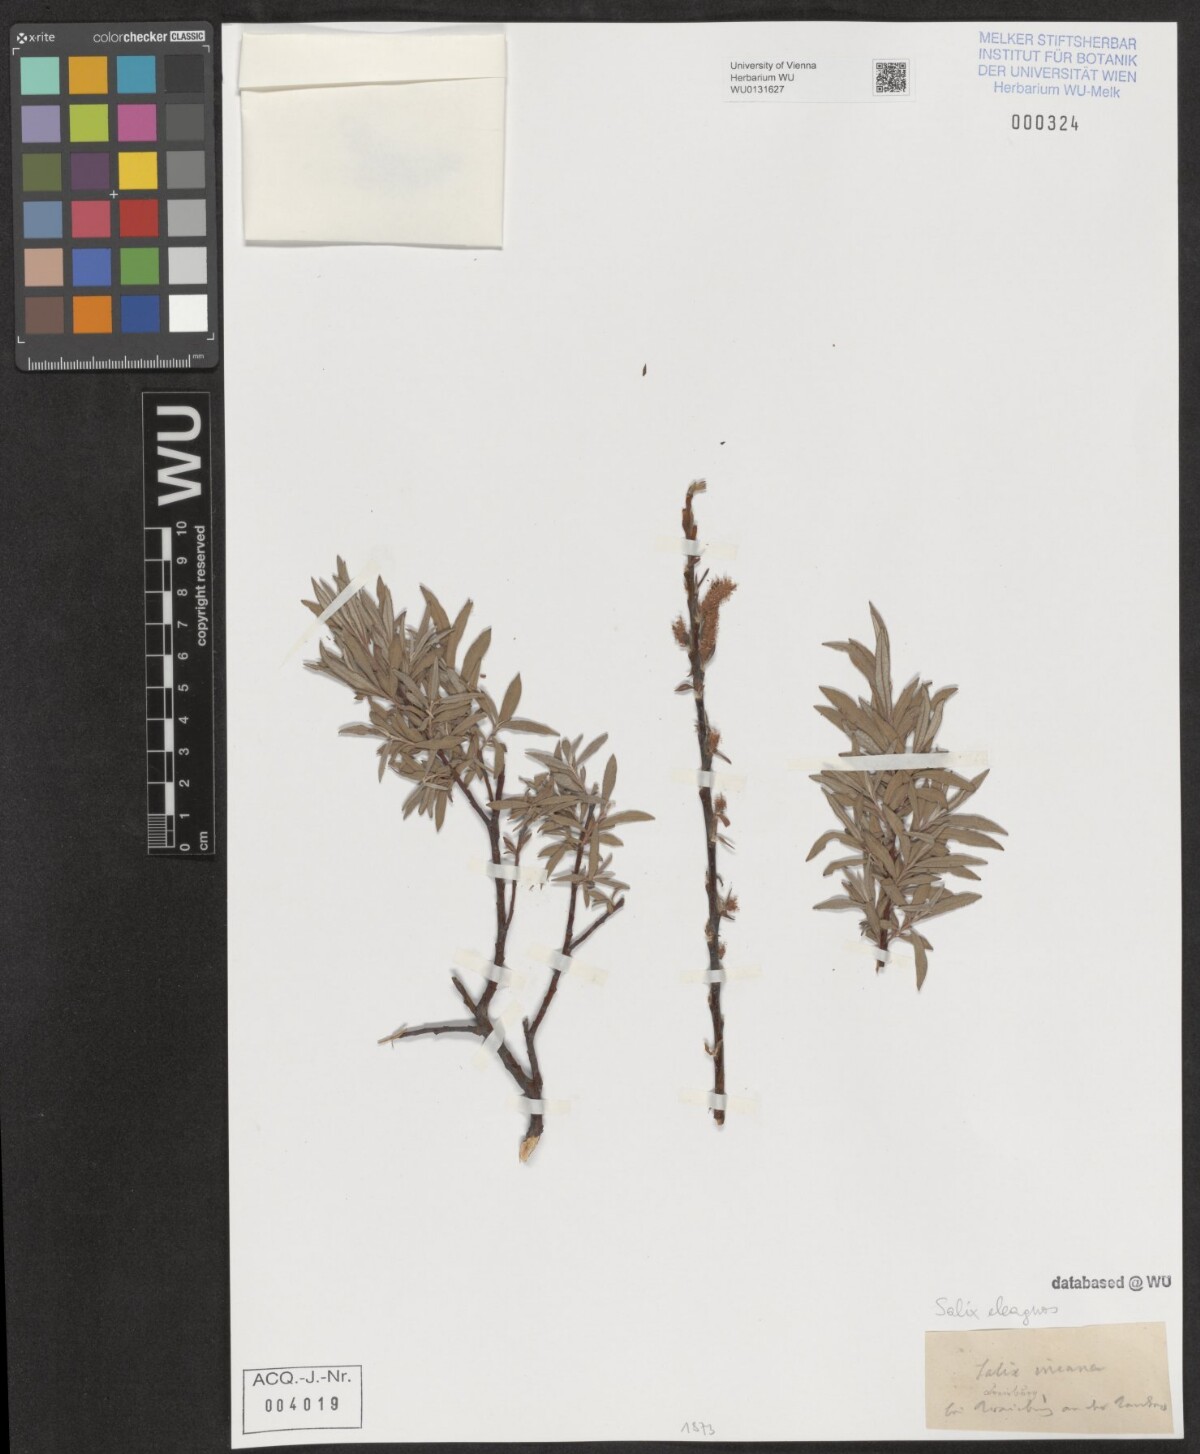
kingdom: Plantae
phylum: Tracheophyta
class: Magnoliopsida
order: Malpighiales
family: Salicaceae
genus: Salix
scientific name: Salix eleagnos
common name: Elaeagnus willow
